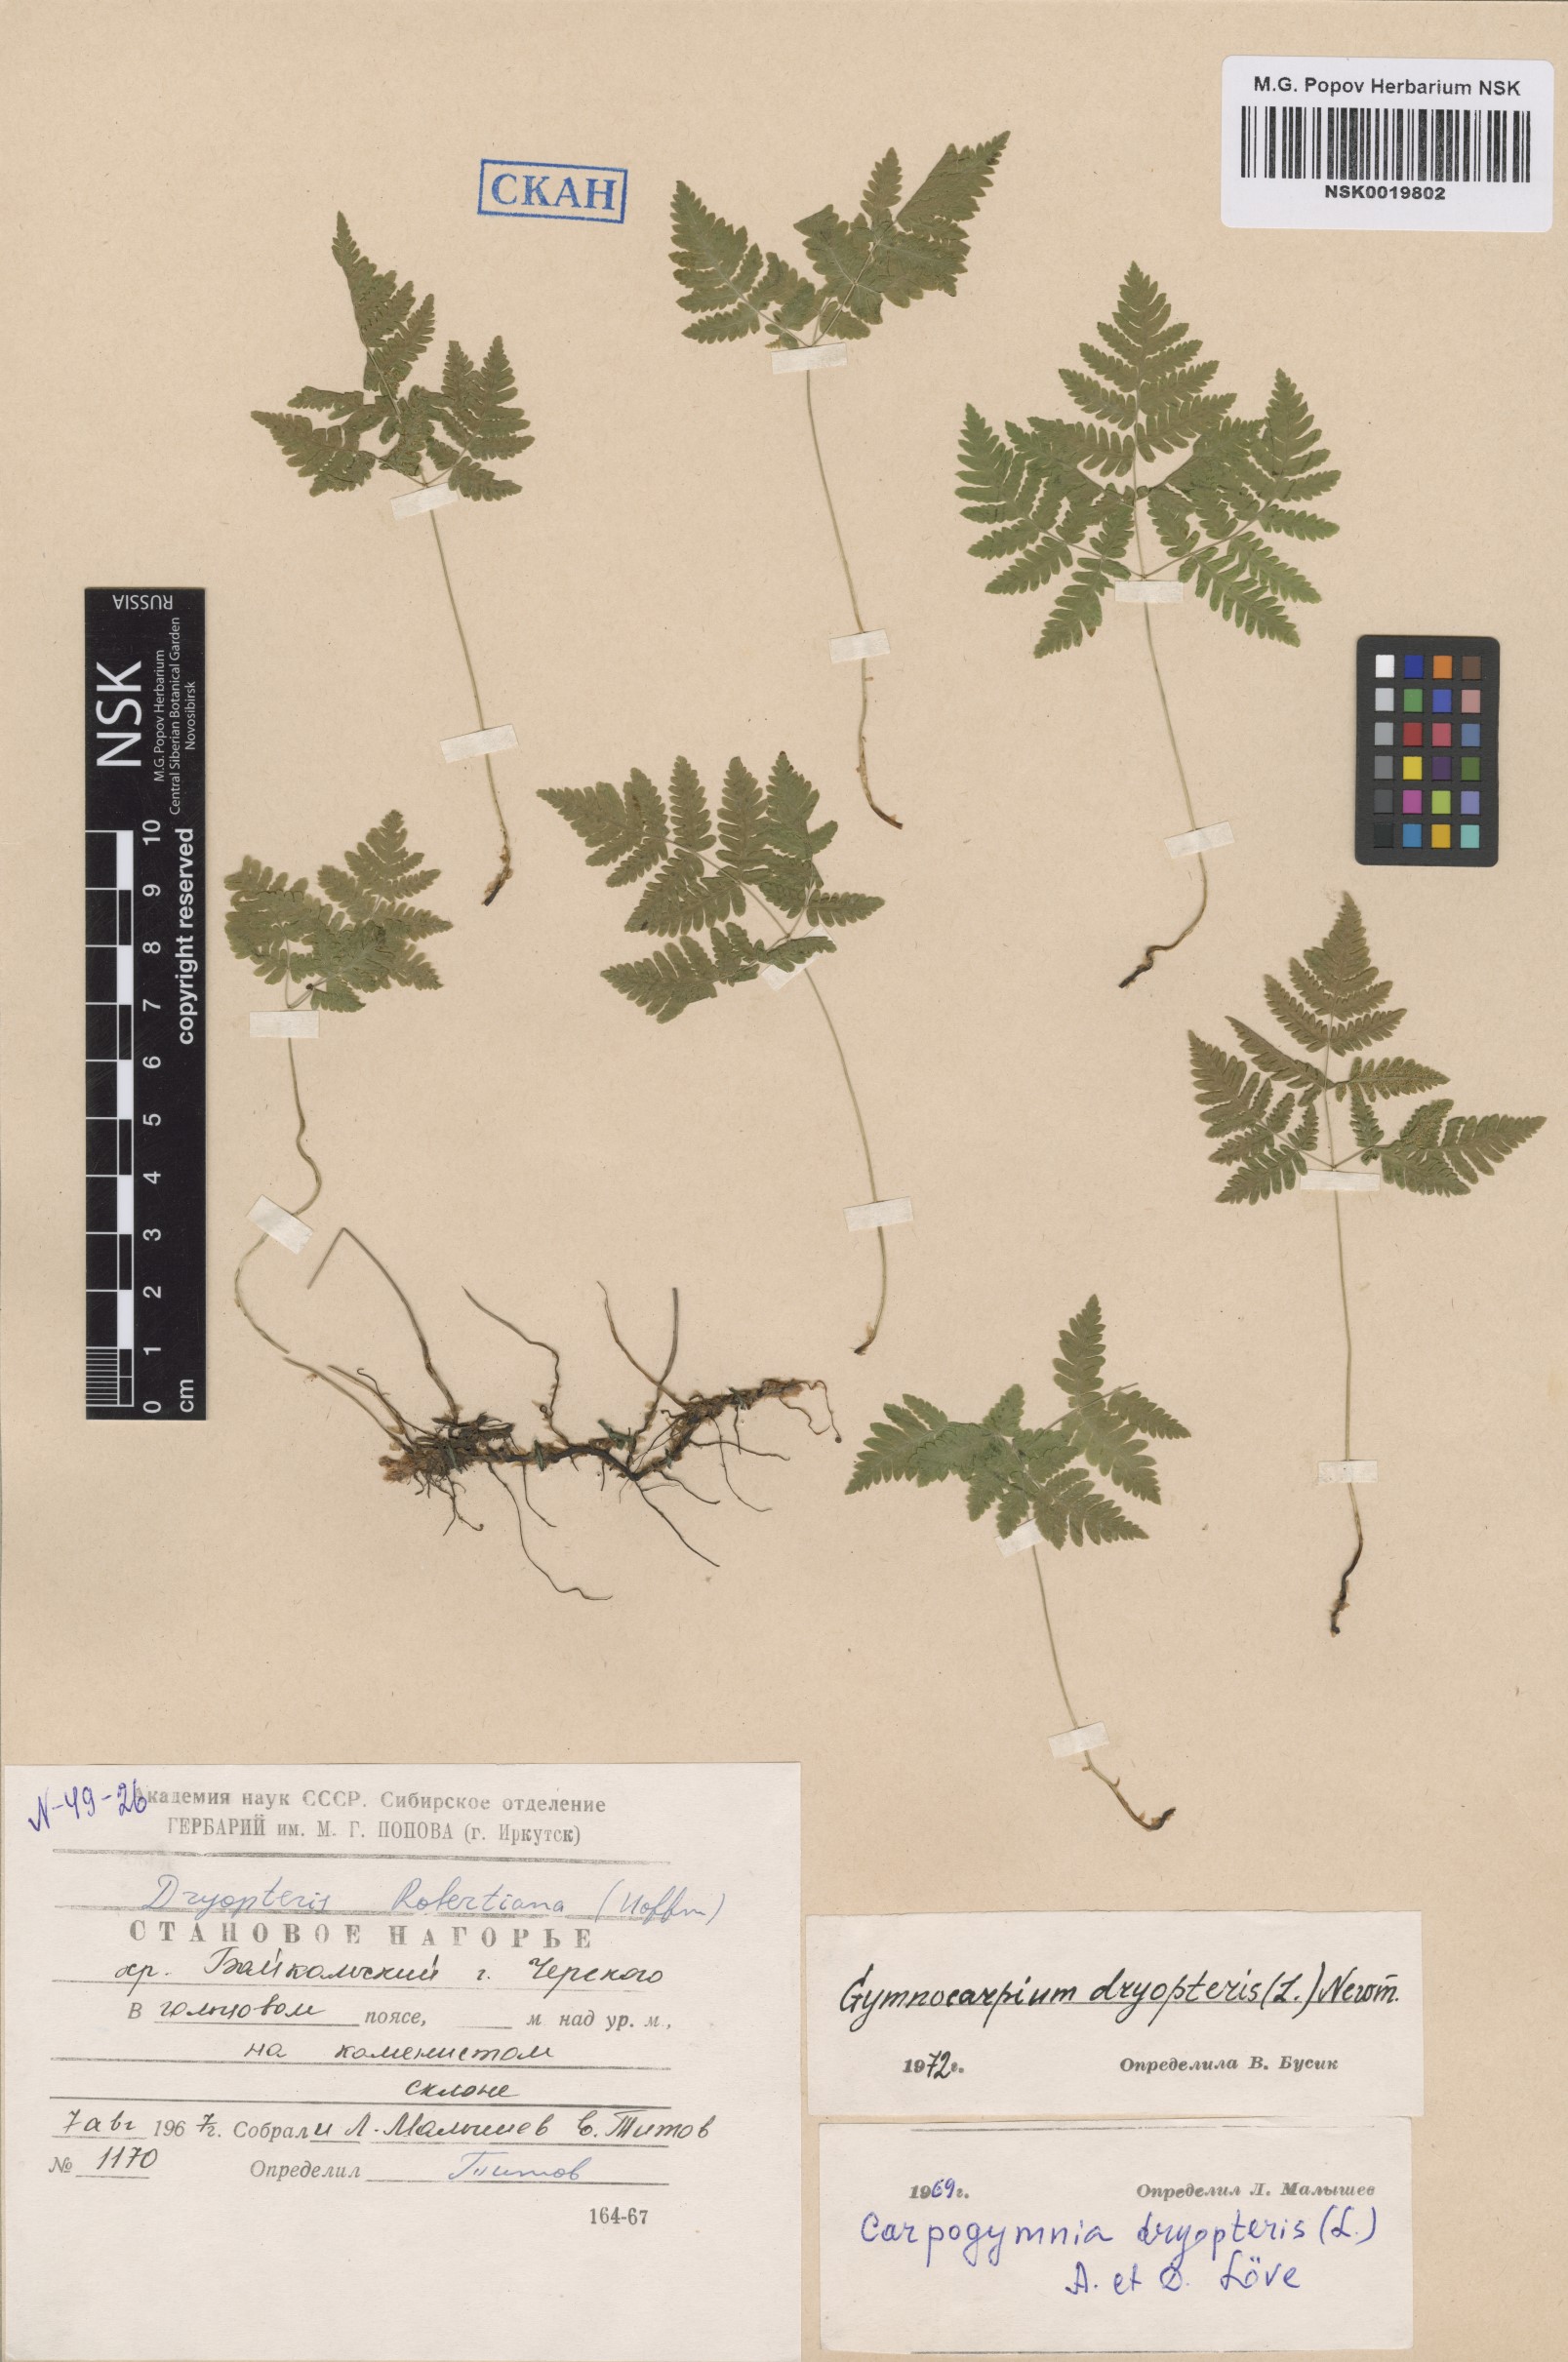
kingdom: Plantae
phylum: Tracheophyta
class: Polypodiopsida
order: Polypodiales
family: Cystopteridaceae
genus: Gymnocarpium
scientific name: Gymnocarpium dryopteris
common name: Oak fern
